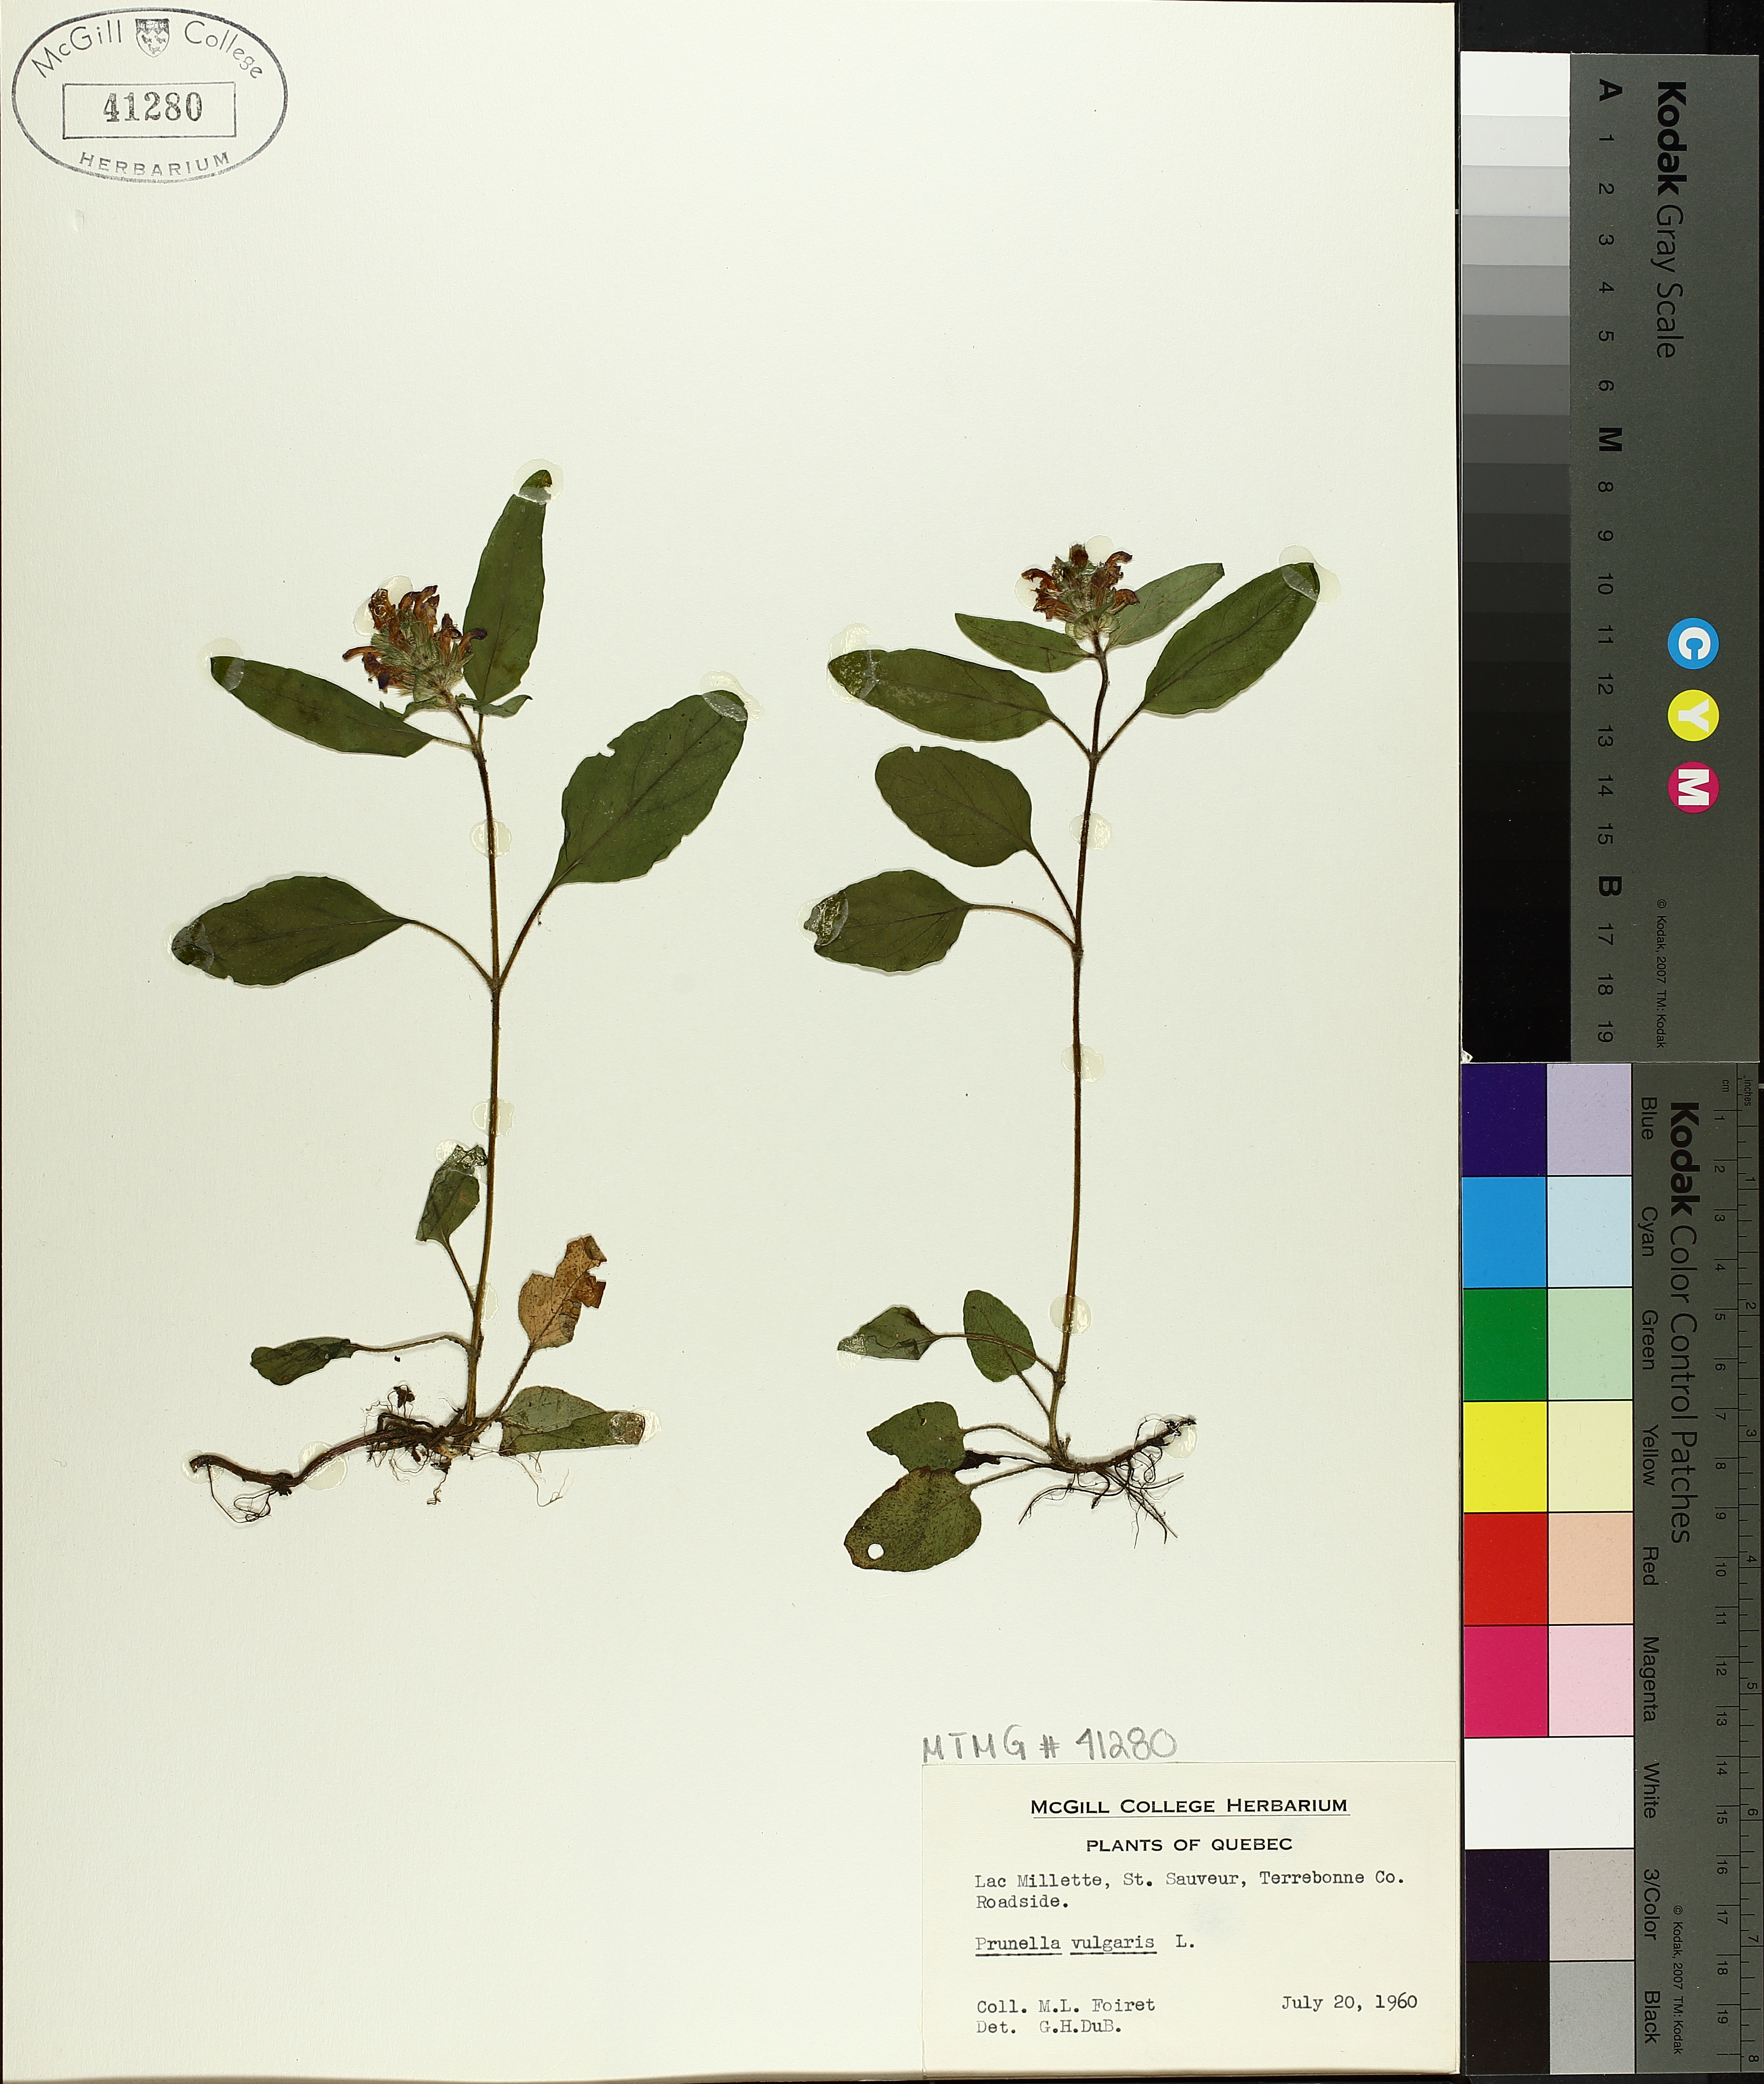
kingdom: Plantae
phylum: Tracheophyta
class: Magnoliopsida
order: Lamiales
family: Lamiaceae
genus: Prunella
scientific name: Prunella vulgaris
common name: Heal-all
